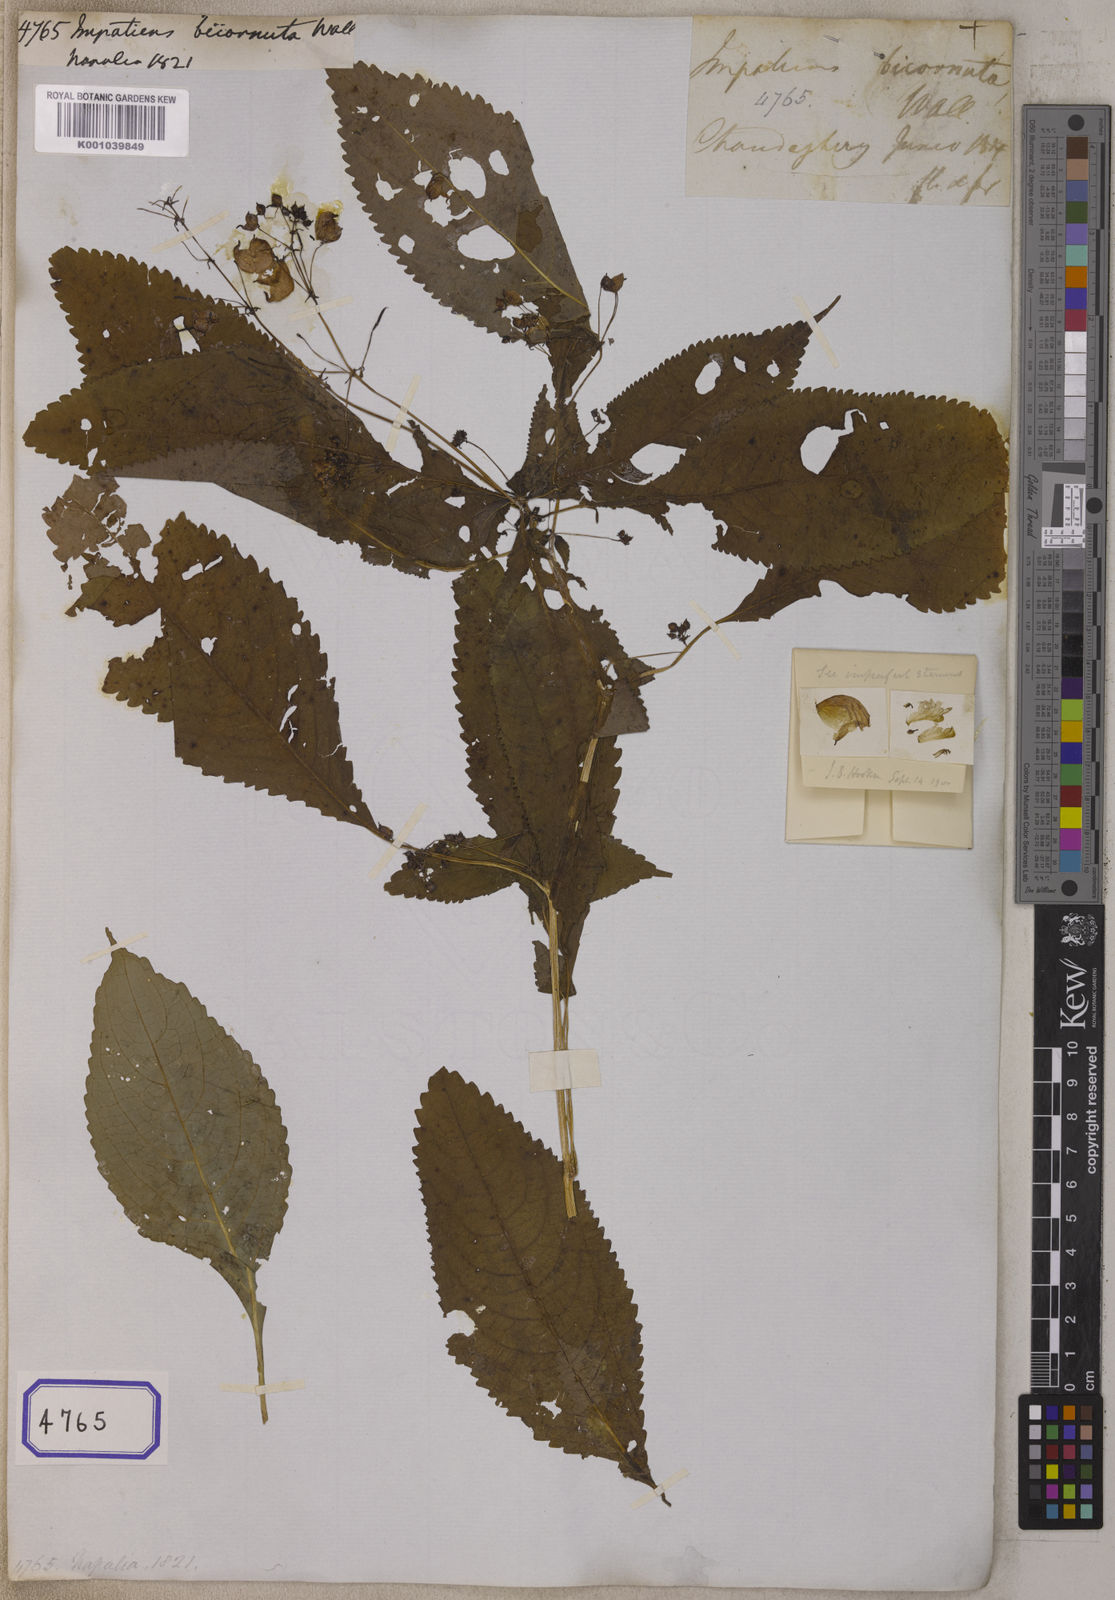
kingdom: Plantae
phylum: Tracheophyta
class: Magnoliopsida
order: Ericales
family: Balsaminaceae
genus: Impatiens
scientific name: Impatiens bicornuta
